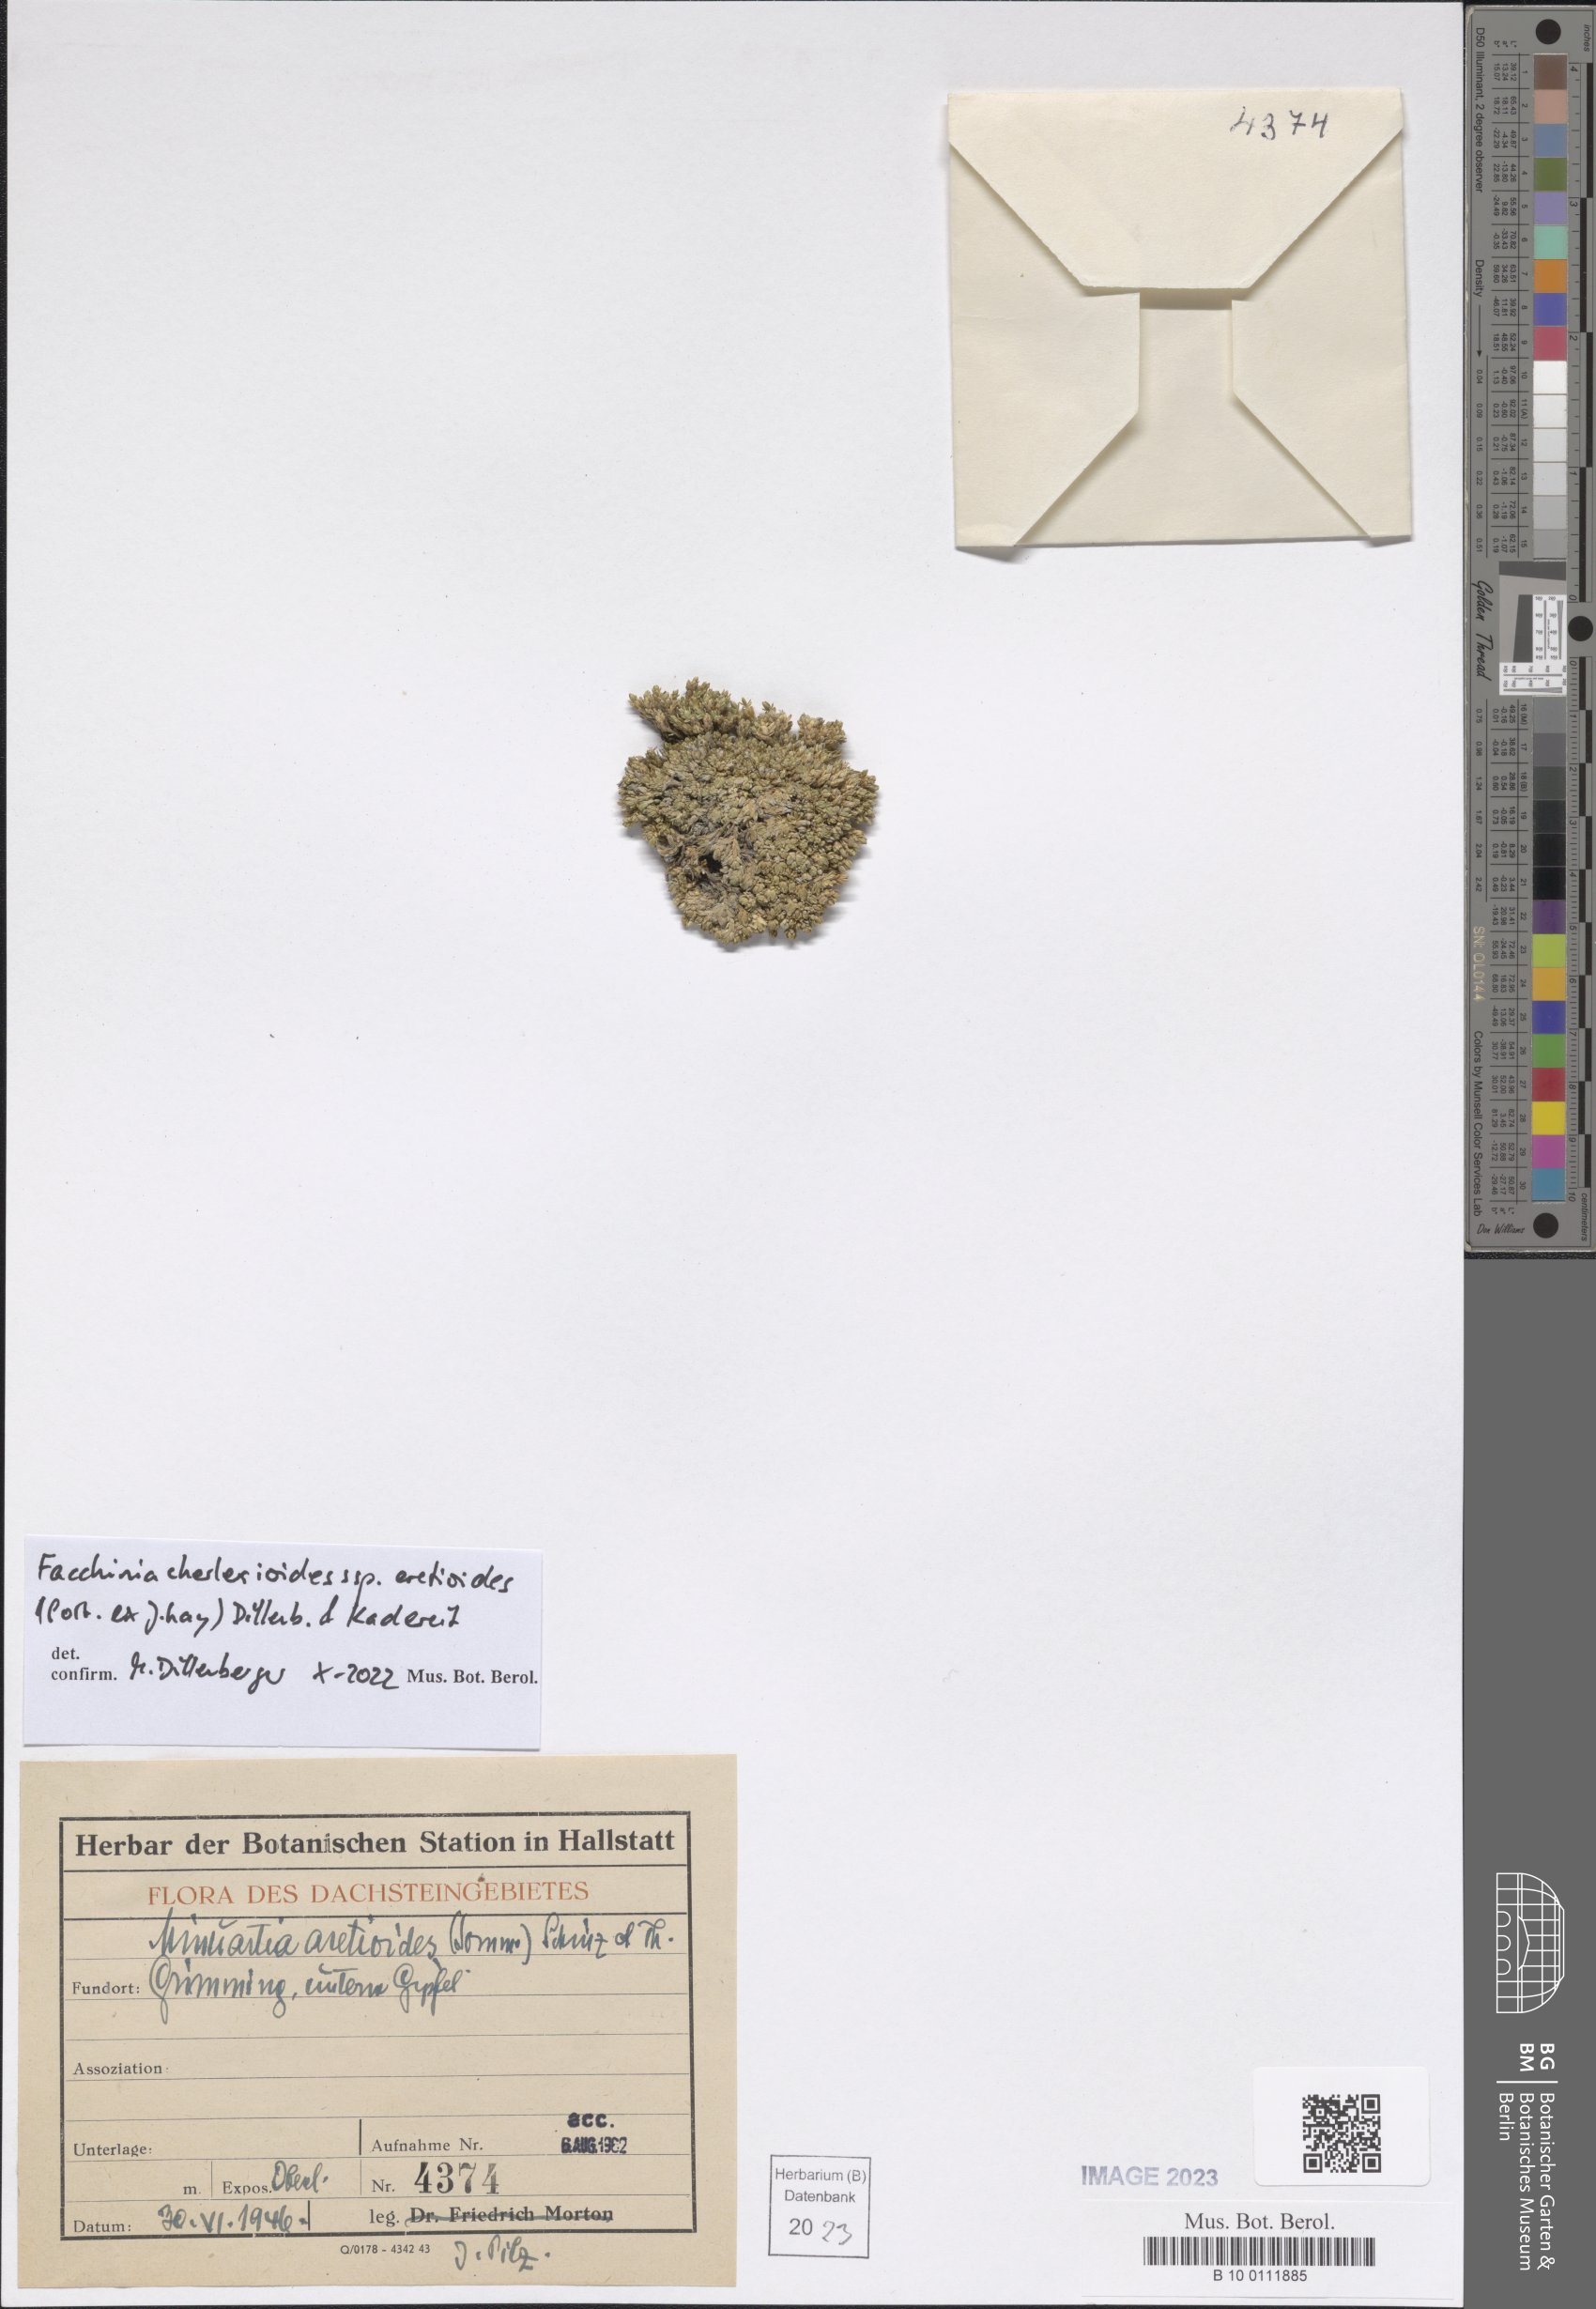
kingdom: Plantae
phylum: Tracheophyta
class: Magnoliopsida
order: Caryophyllales
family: Caryophyllaceae
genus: Facchinia
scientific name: Facchinia cherlerioides
